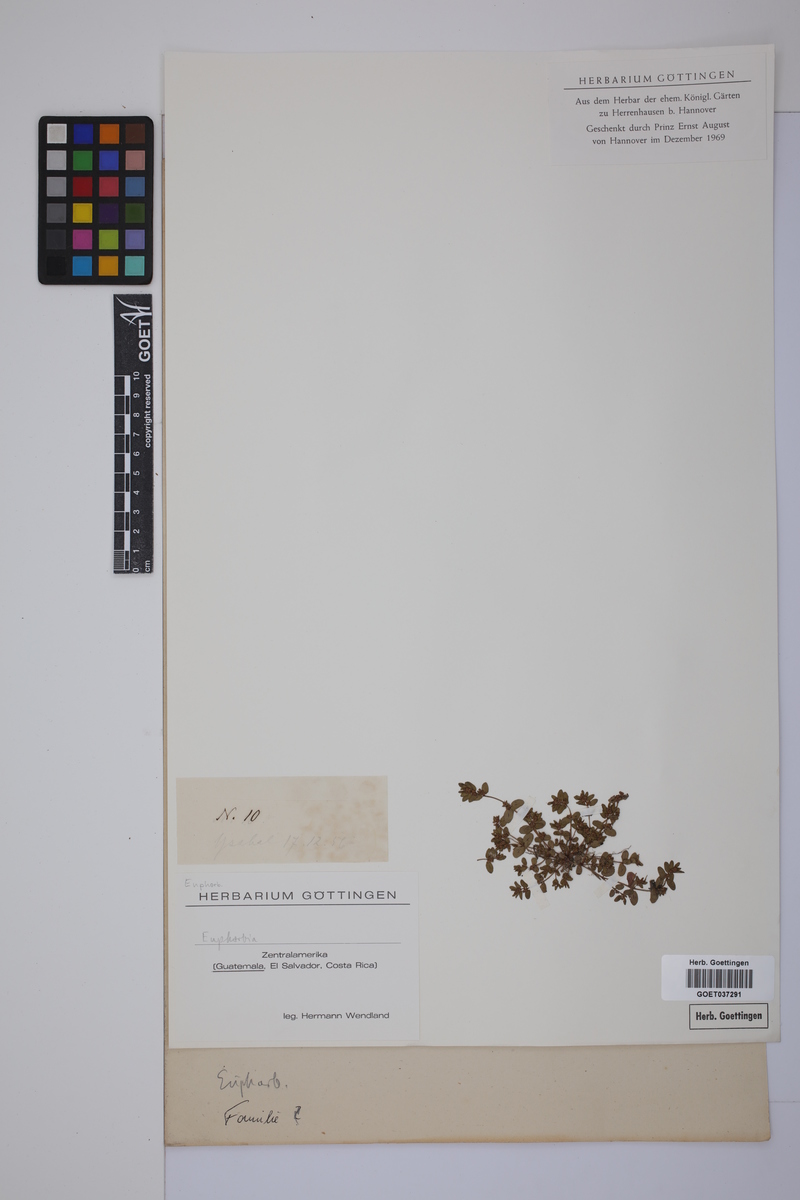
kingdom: Plantae
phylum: Tracheophyta
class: Magnoliopsida
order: Malpighiales
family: Euphorbiaceae
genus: Euphorbia
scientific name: Euphorbia
